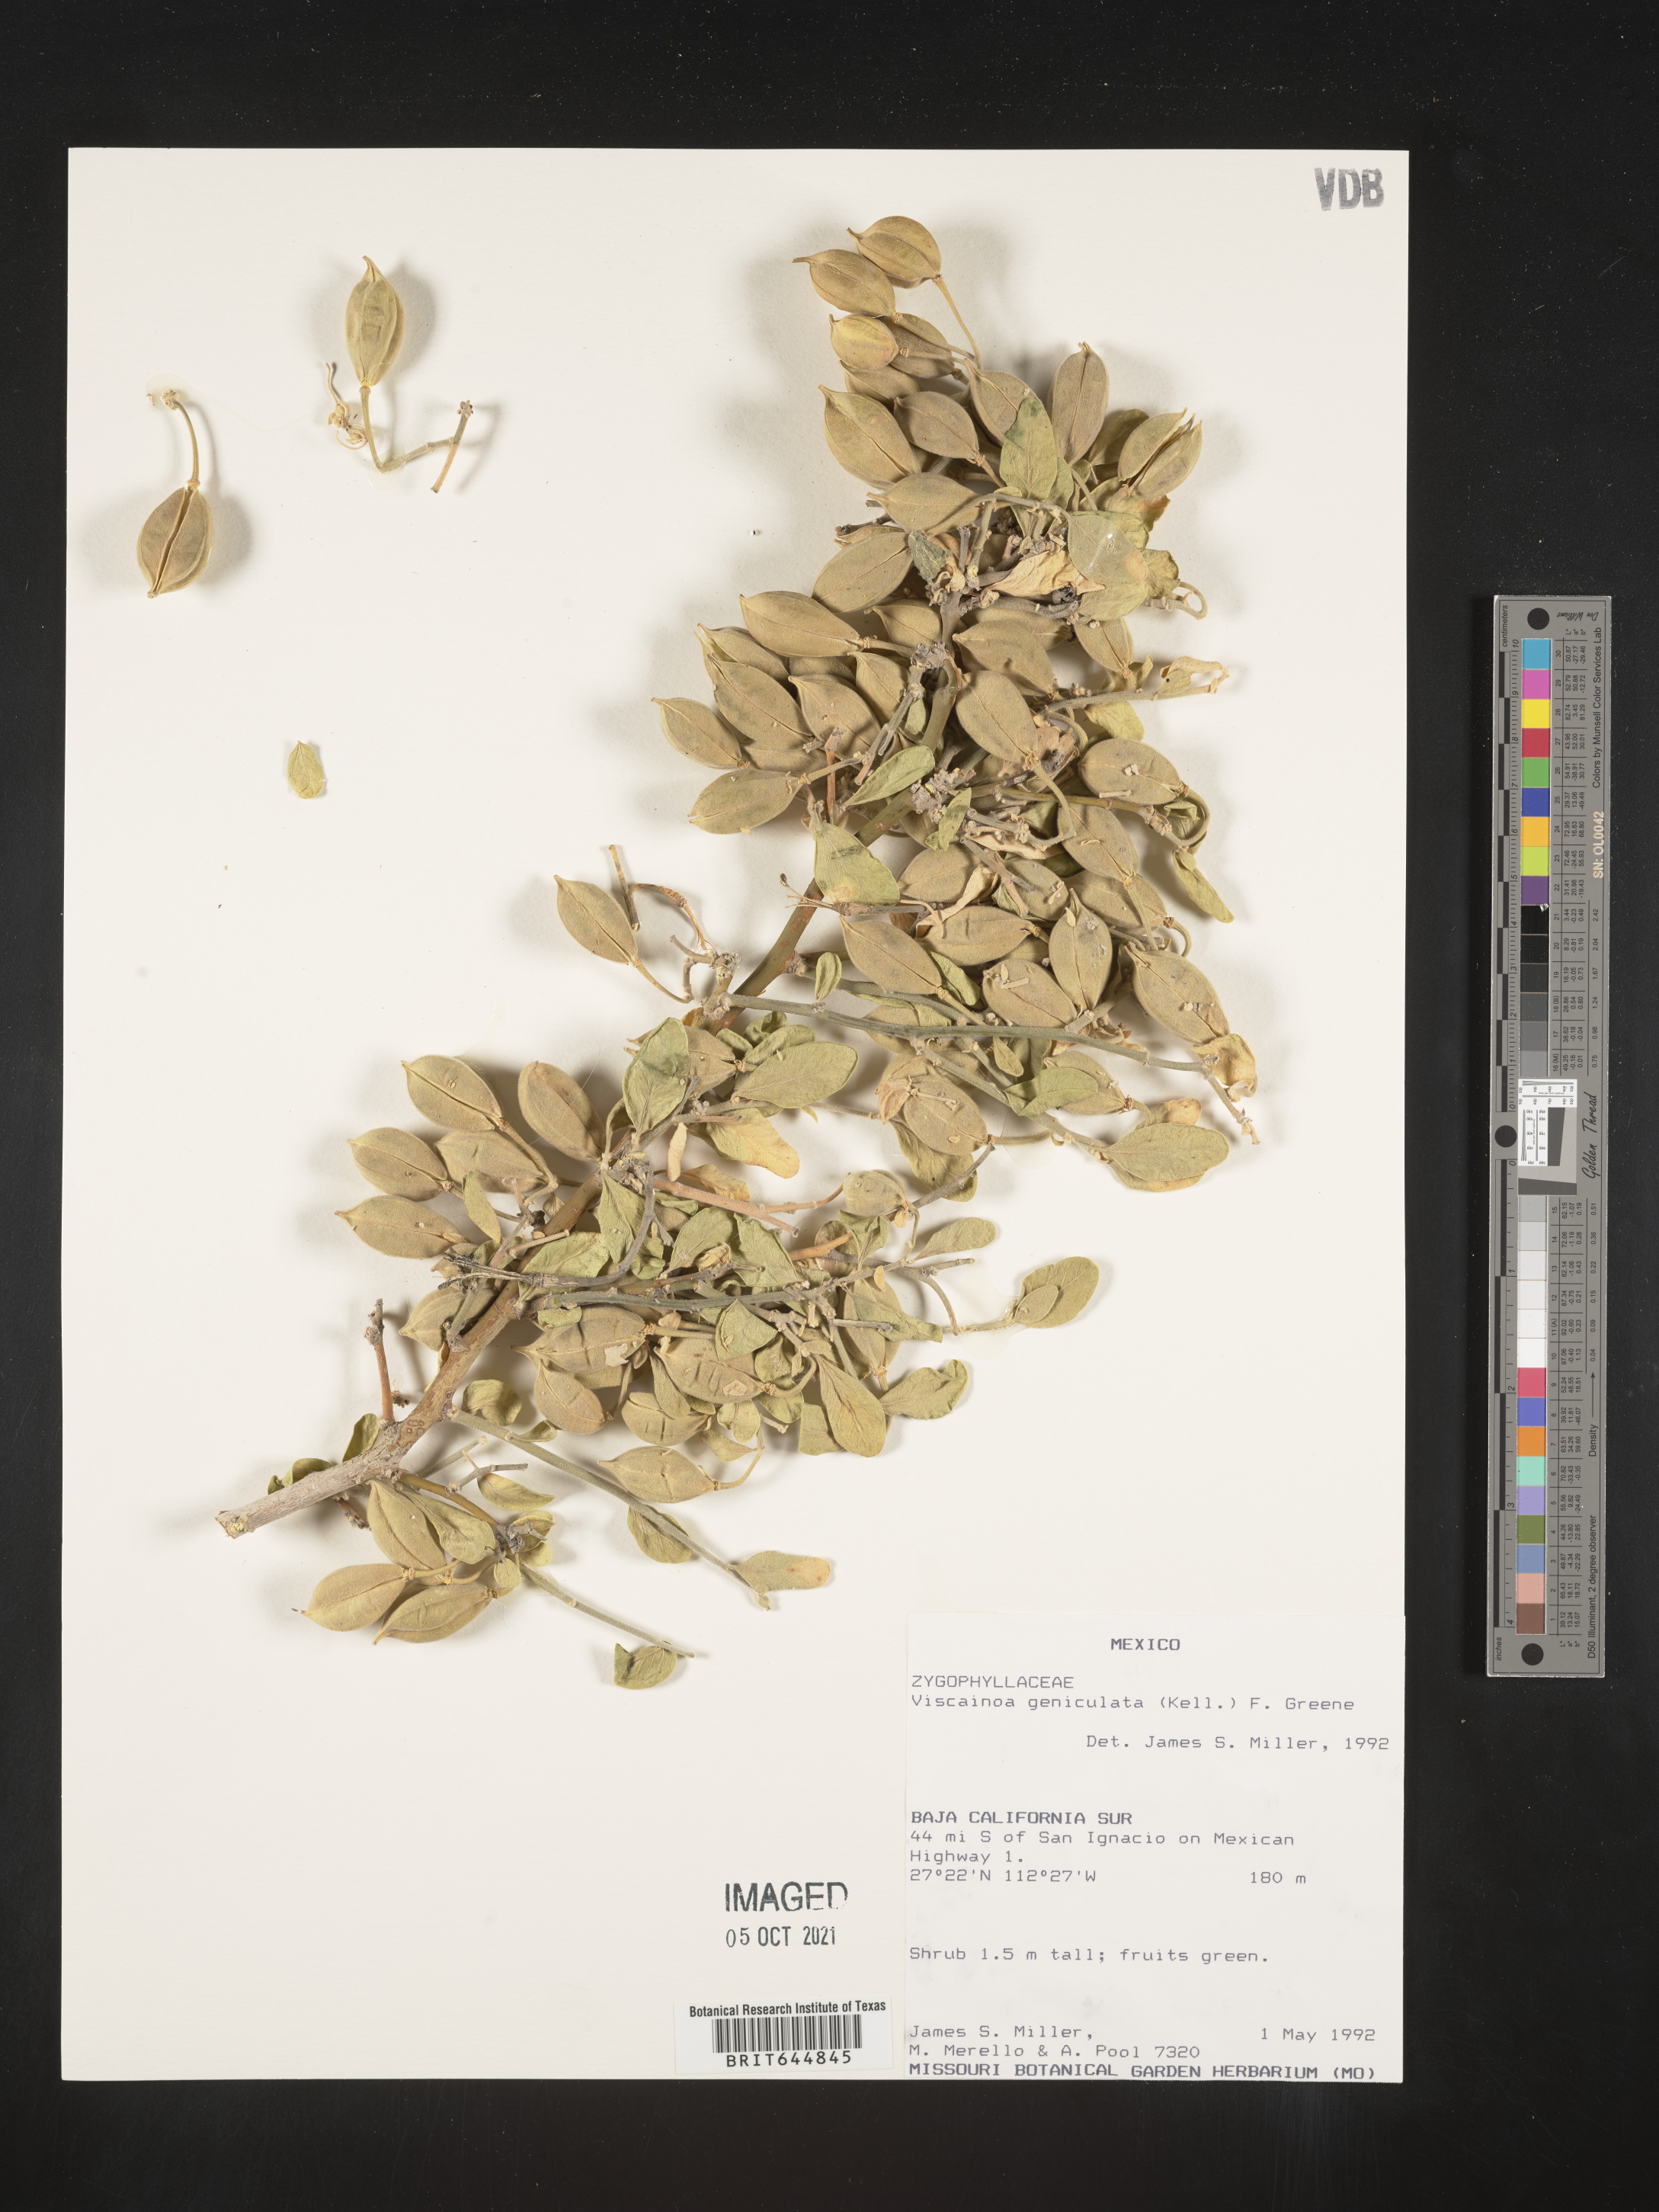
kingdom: Plantae
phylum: Tracheophyta
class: Magnoliopsida
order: Zygophyllales
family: Zygophyllaceae
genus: Viscainoa
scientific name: Viscainoa
